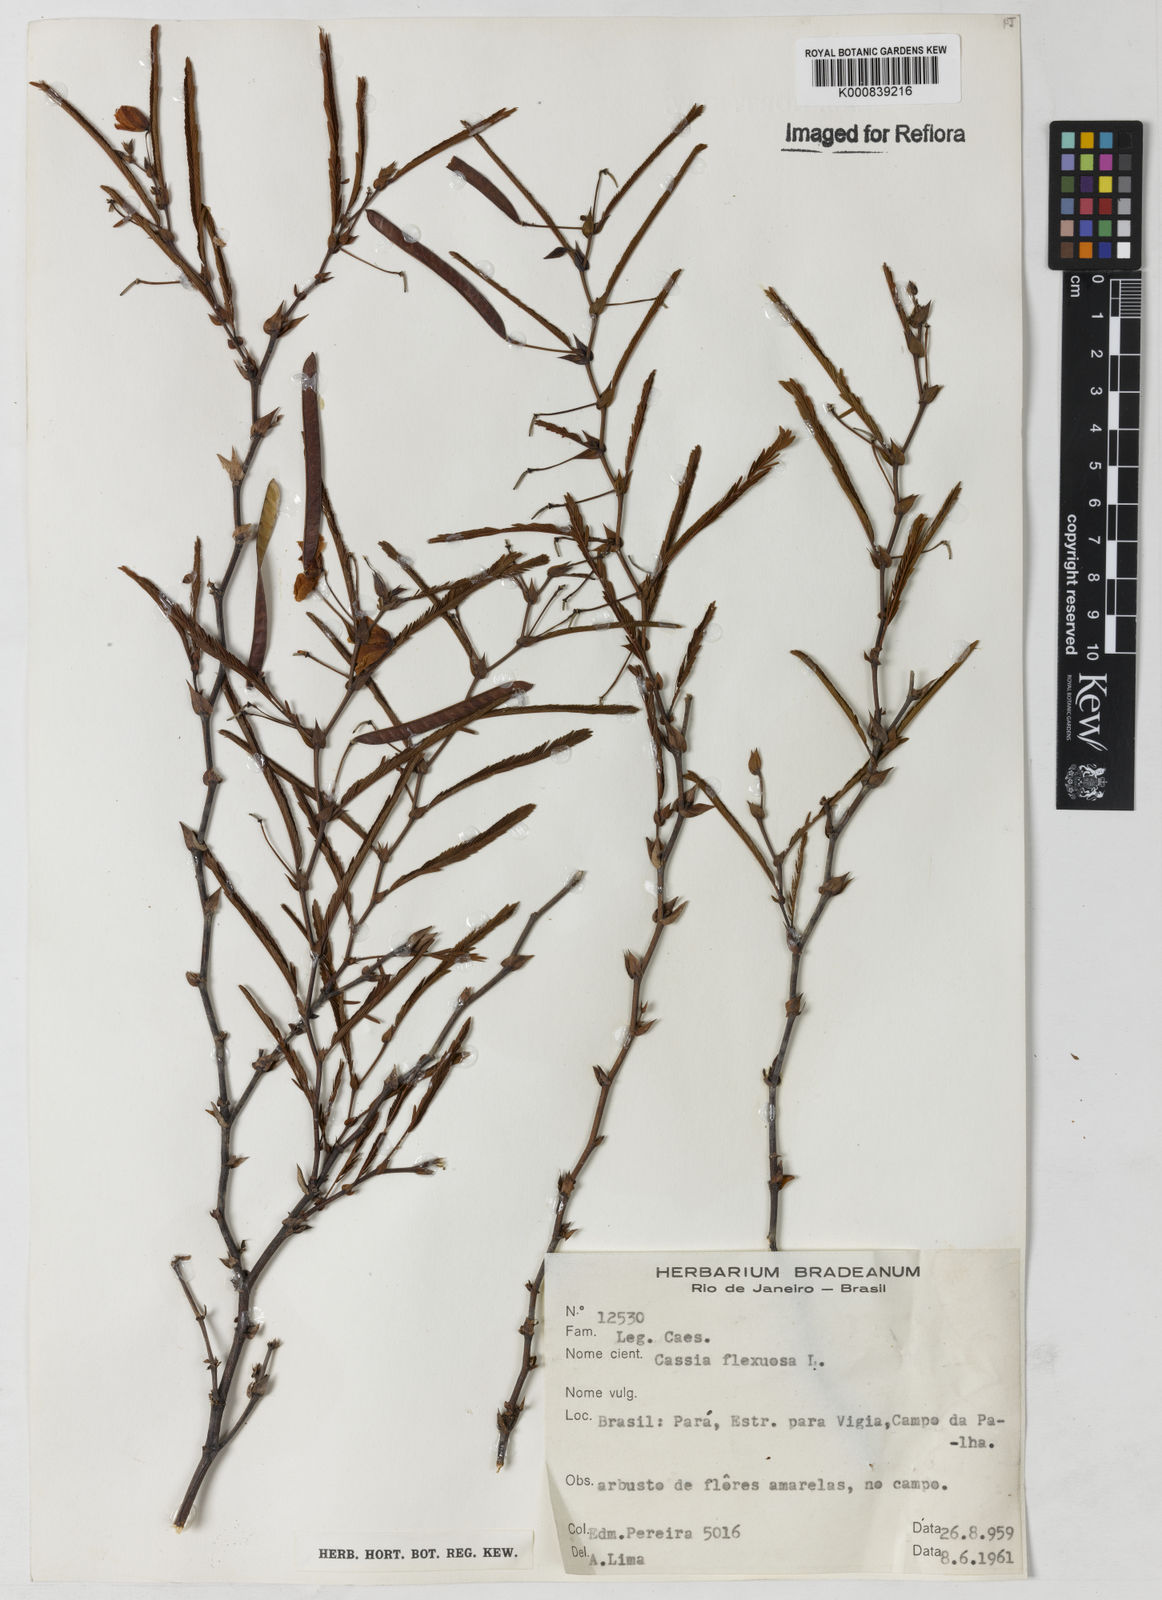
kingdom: Plantae
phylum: Tracheophyta
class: Magnoliopsida
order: Fabales
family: Fabaceae
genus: Chamaecrista
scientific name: Chamaecrista flexuosa
